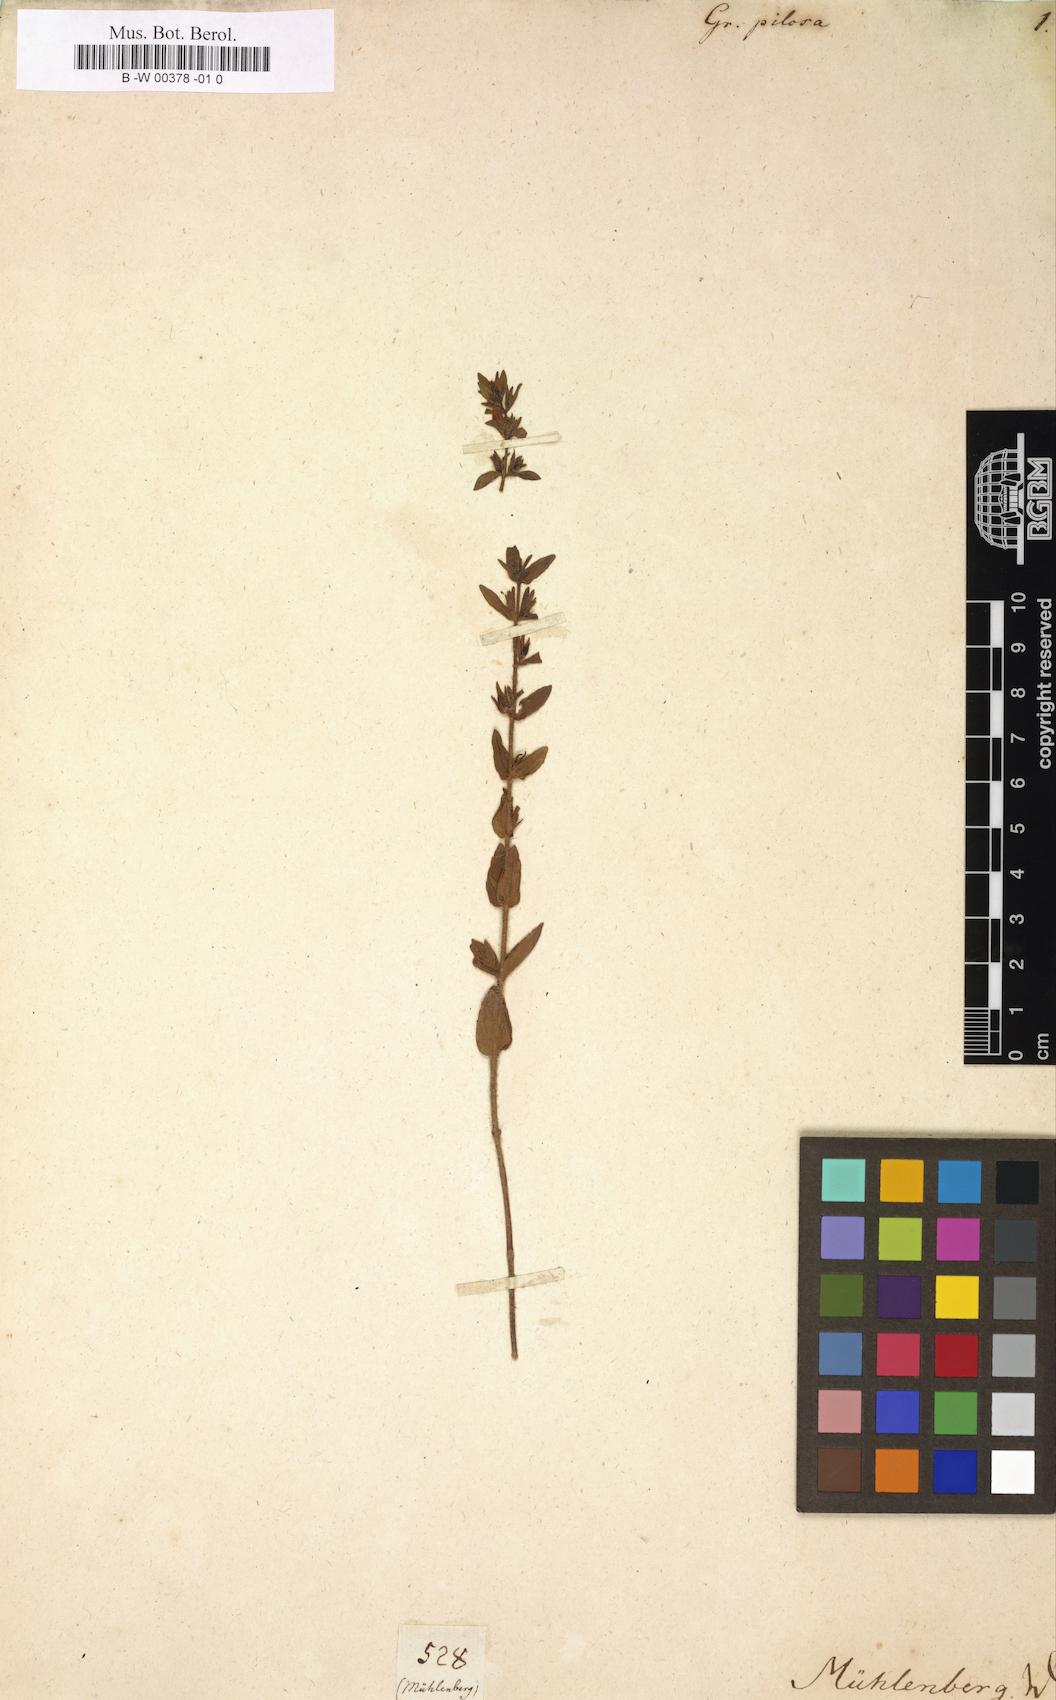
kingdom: Plantae
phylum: Tracheophyta
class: Magnoliopsida
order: Lamiales
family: Plantaginaceae
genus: Gratiola
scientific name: Gratiola pilosa
